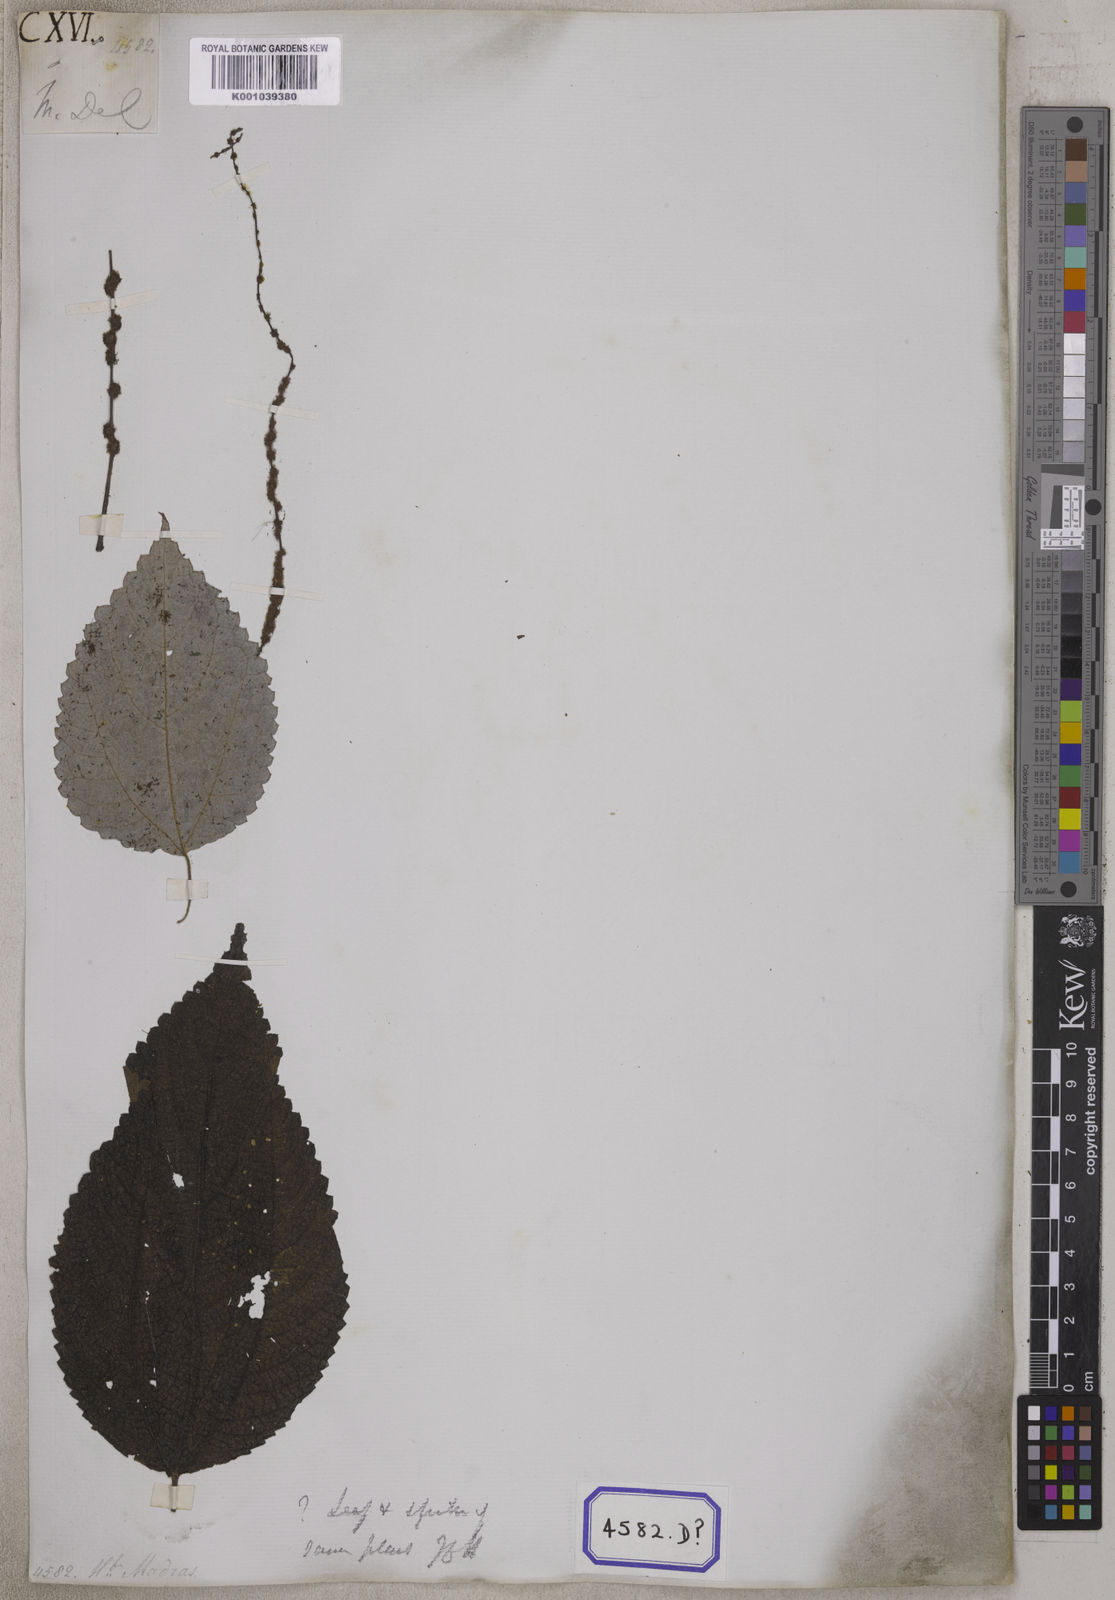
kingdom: Plantae
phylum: Tracheophyta
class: Magnoliopsida
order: Rosales
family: Urticaceae
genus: Boehmeria
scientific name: Boehmeria virgata
